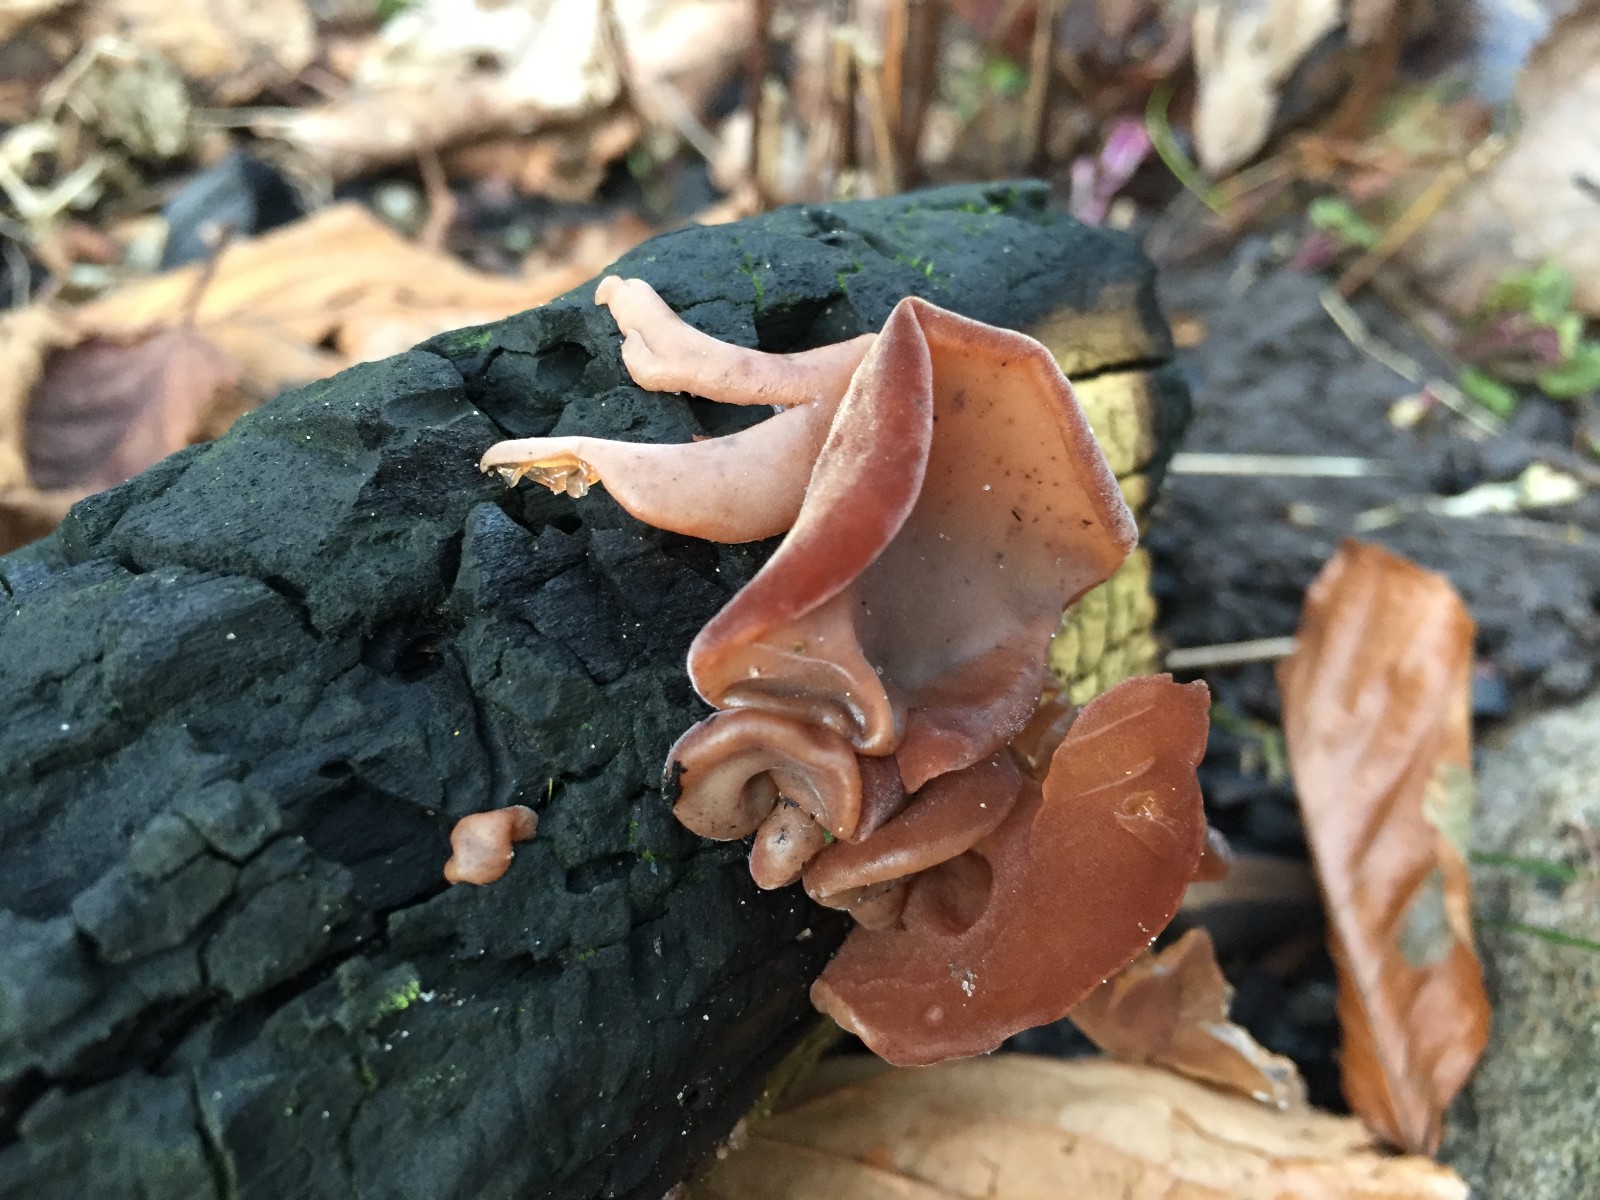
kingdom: Fungi
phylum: Basidiomycota
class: Agaricomycetes
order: Auriculariales
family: Auriculariaceae
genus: Auricularia
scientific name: Auricularia auricula-judae
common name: almindelig judasøre
